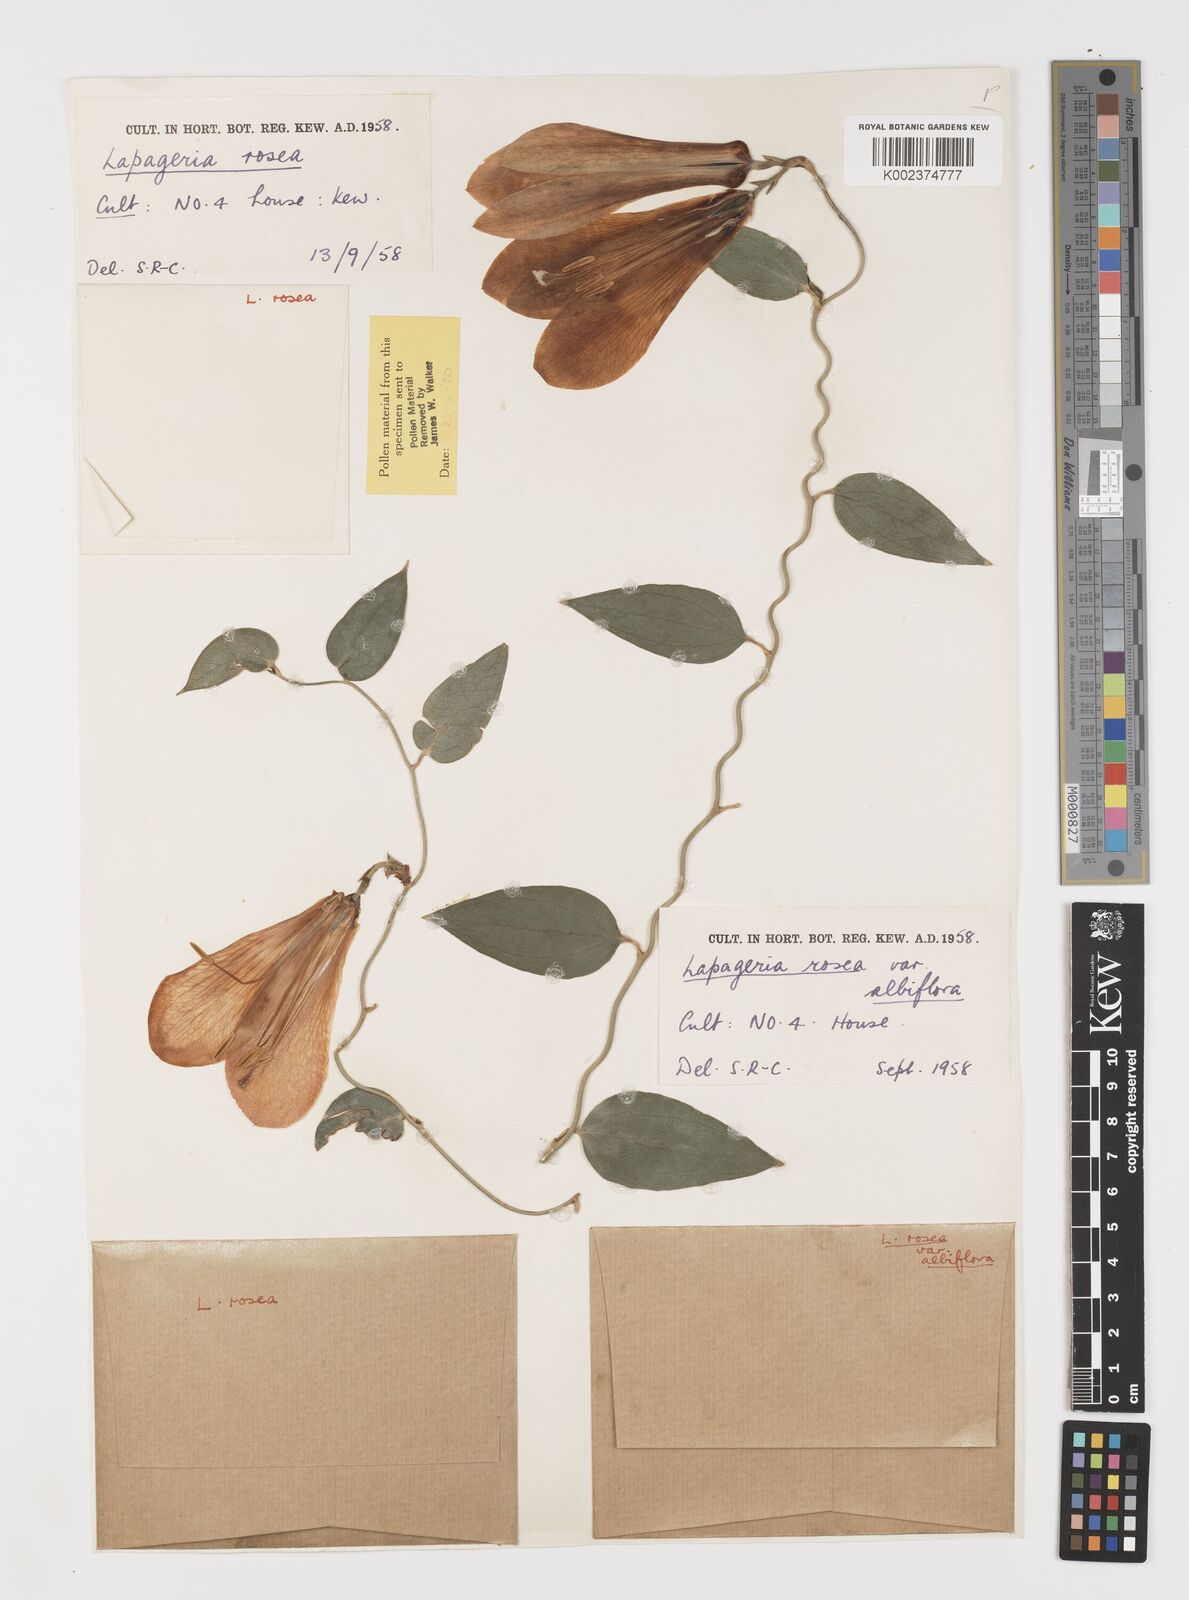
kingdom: Plantae
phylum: Tracheophyta
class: Liliopsida
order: Liliales
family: Philesiaceae
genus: Lapageria
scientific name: Lapageria rosea
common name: Chilean-bellflower
